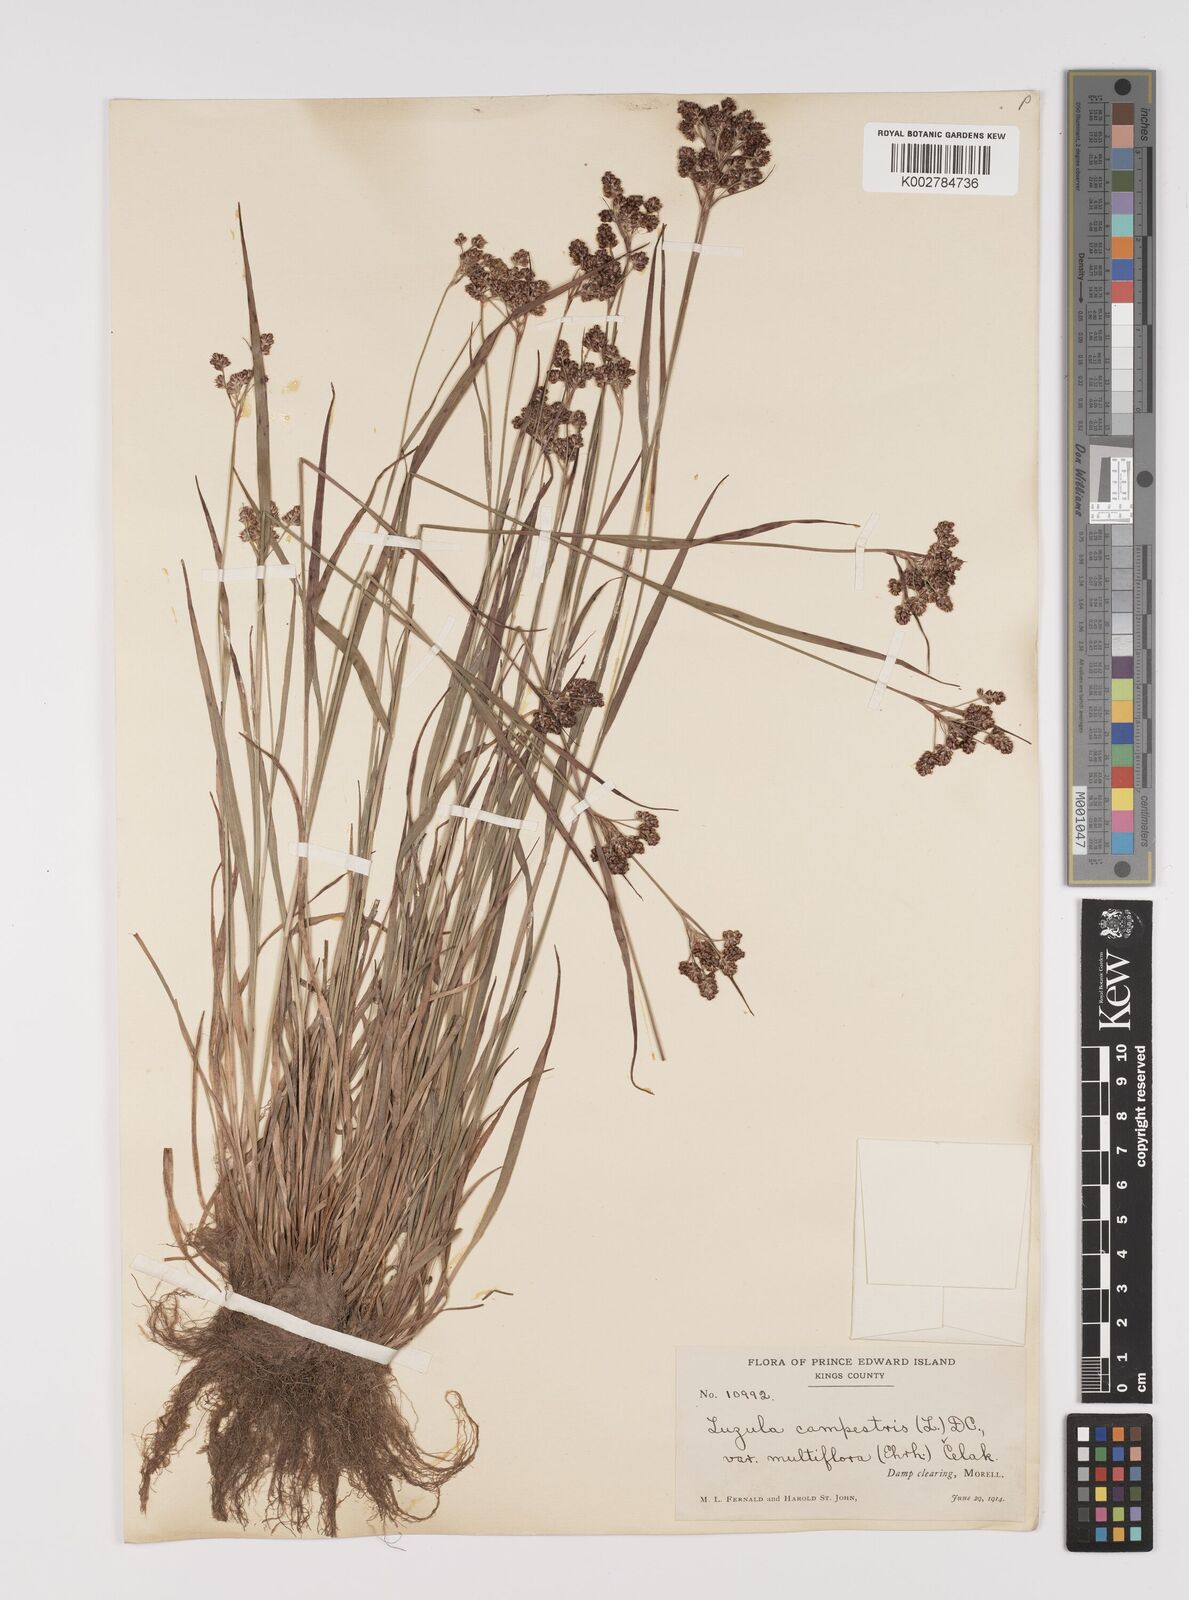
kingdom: Plantae
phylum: Tracheophyta
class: Liliopsida
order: Poales
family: Juncaceae
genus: Luzula
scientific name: Luzula campestris
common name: Field wood-rush
